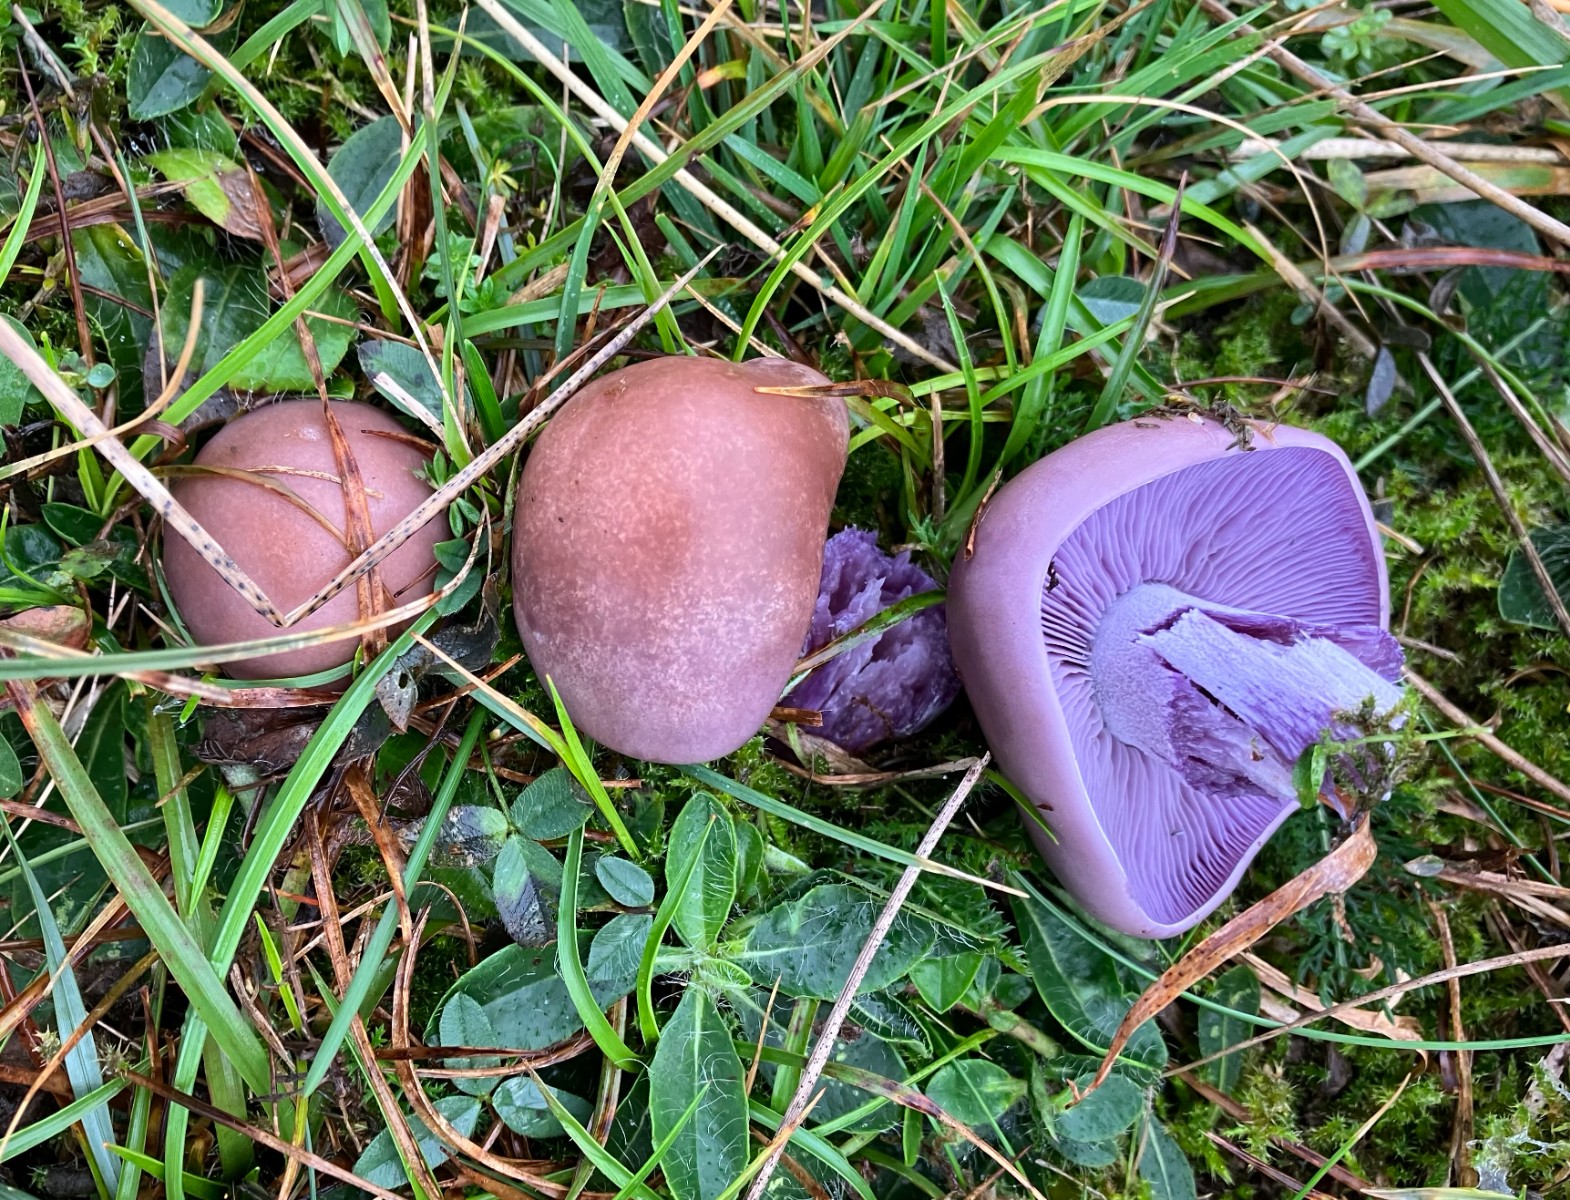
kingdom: Fungi
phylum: Basidiomycota
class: Agaricomycetes
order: Agaricales
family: Tricholomataceae
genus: Lepista
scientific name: Lepista nuda
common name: violet hekseringshat
